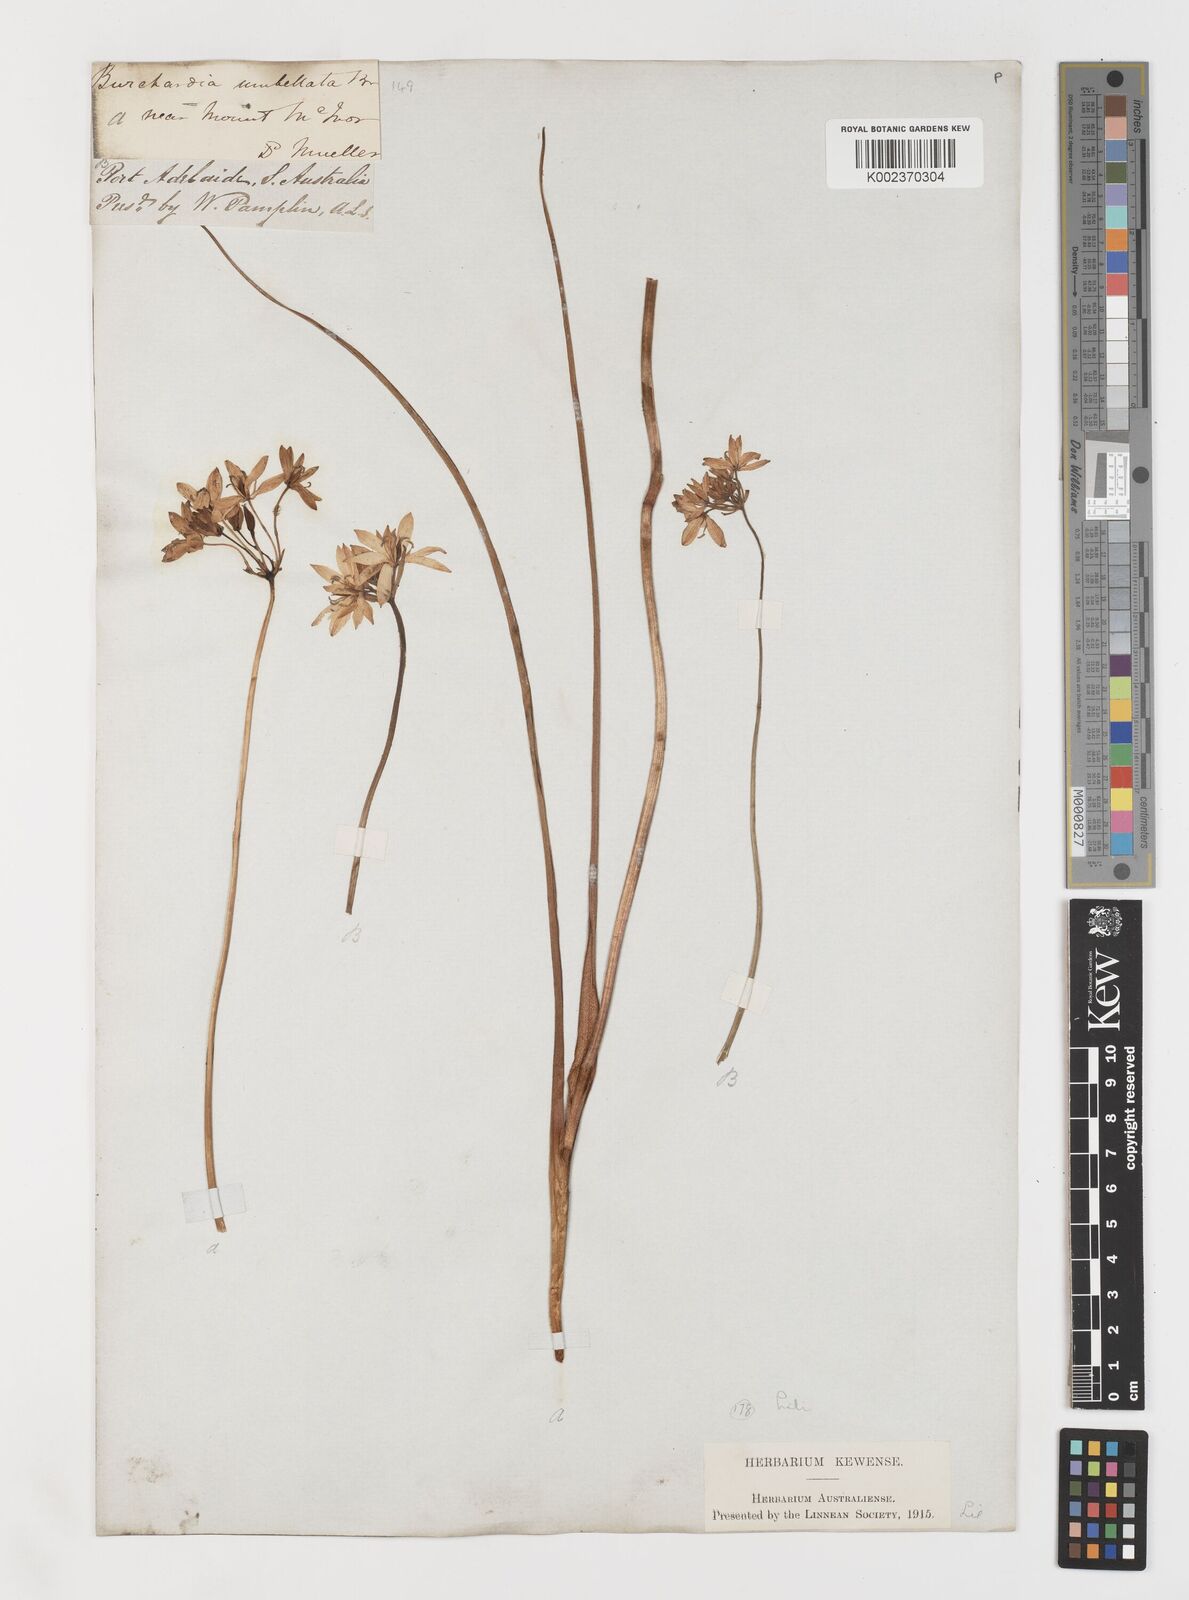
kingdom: Plantae
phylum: Tracheophyta
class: Liliopsida
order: Liliales
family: Colchicaceae
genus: Burchardia
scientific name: Burchardia umbellata
